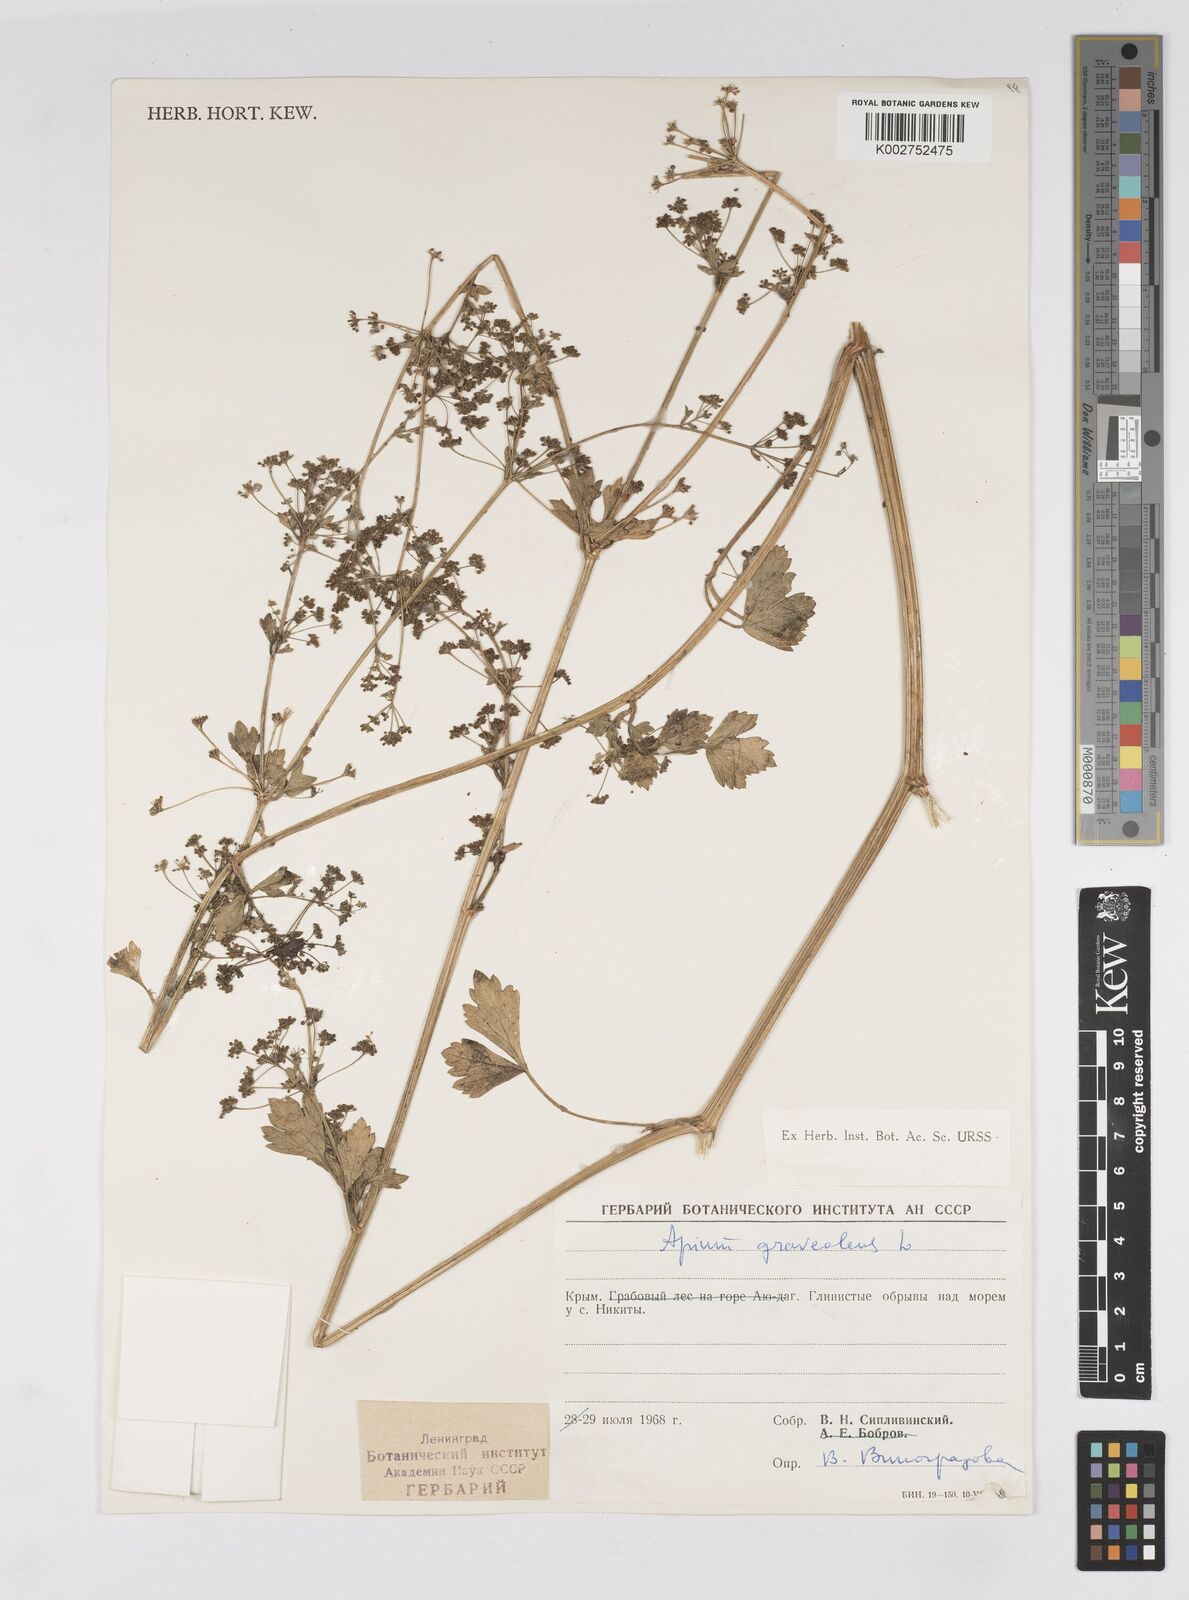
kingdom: Plantae
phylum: Tracheophyta
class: Magnoliopsida
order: Apiales
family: Apiaceae
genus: Apium
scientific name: Apium graveolens
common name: Wild celery
